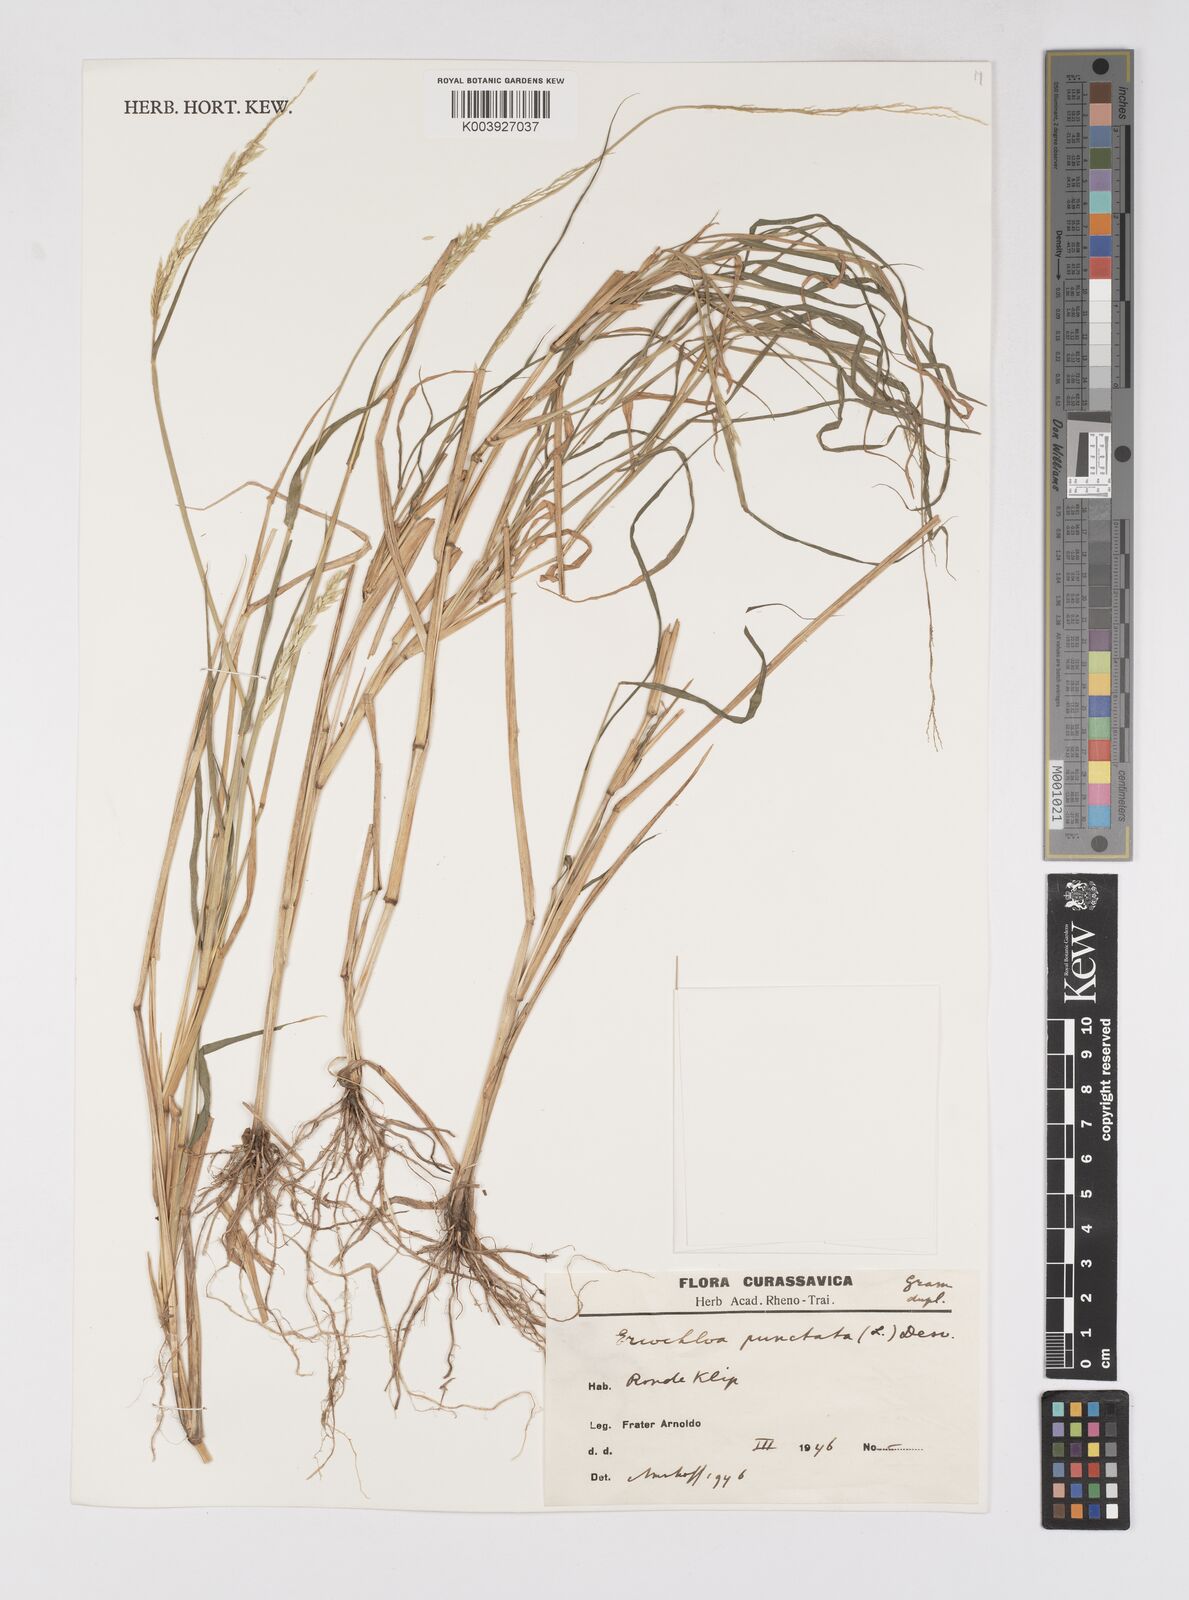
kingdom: Plantae
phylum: Tracheophyta
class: Liliopsida
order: Poales
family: Poaceae
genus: Eriochloa
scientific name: Eriochloa punctata
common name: Louisiana cupgrass
